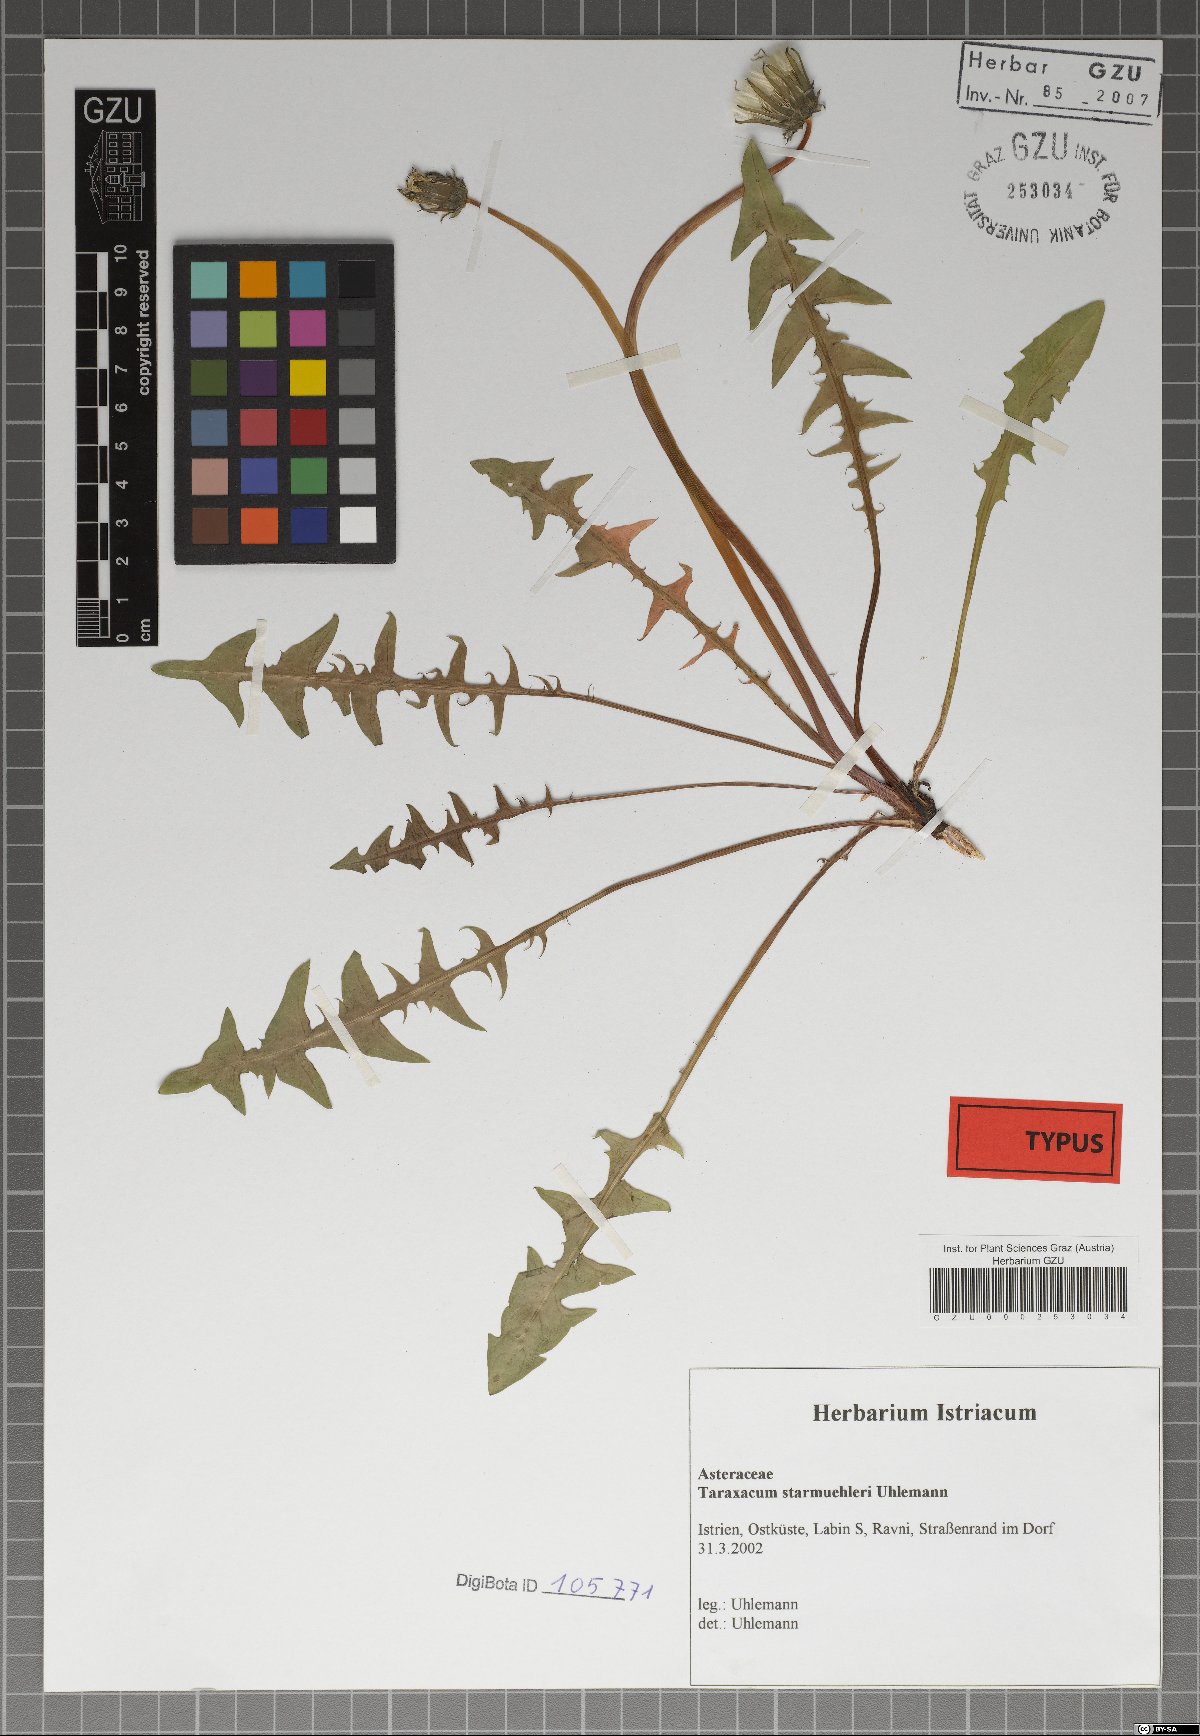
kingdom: Plantae
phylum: Tracheophyta
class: Magnoliopsida
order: Asterales
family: Asteraceae
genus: Taraxacum
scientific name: Taraxacum starmuehleri
